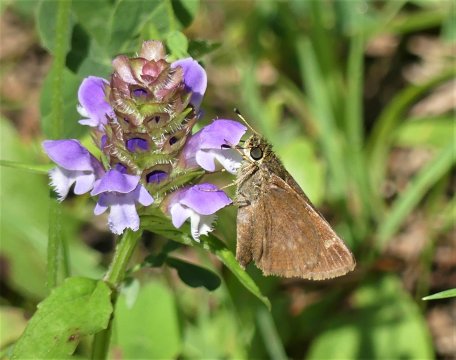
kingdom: Animalia
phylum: Arthropoda
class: Insecta
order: Lepidoptera
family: Hesperiidae
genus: Vernia
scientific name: Vernia verna
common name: Little Glassywing
